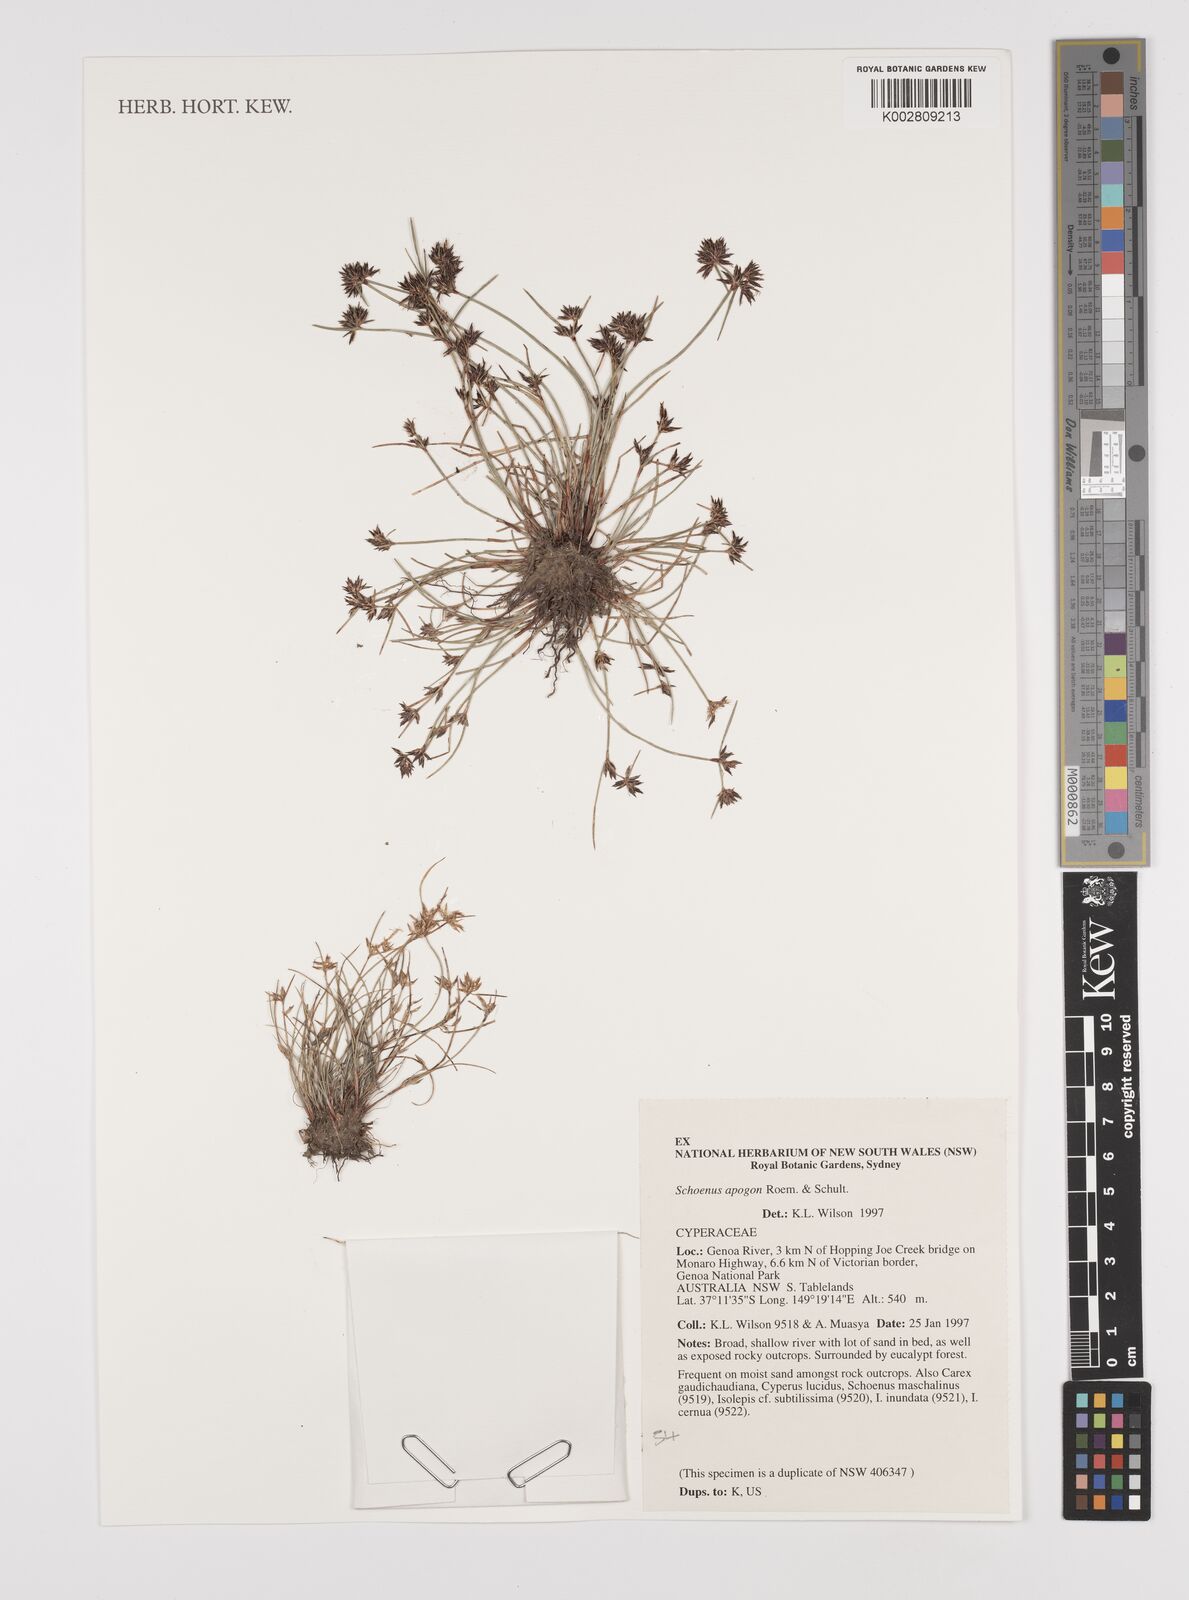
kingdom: Plantae
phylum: Tracheophyta
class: Liliopsida
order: Poales
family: Cyperaceae
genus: Schoenus
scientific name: Schoenus apogon
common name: Smooth bogrush
